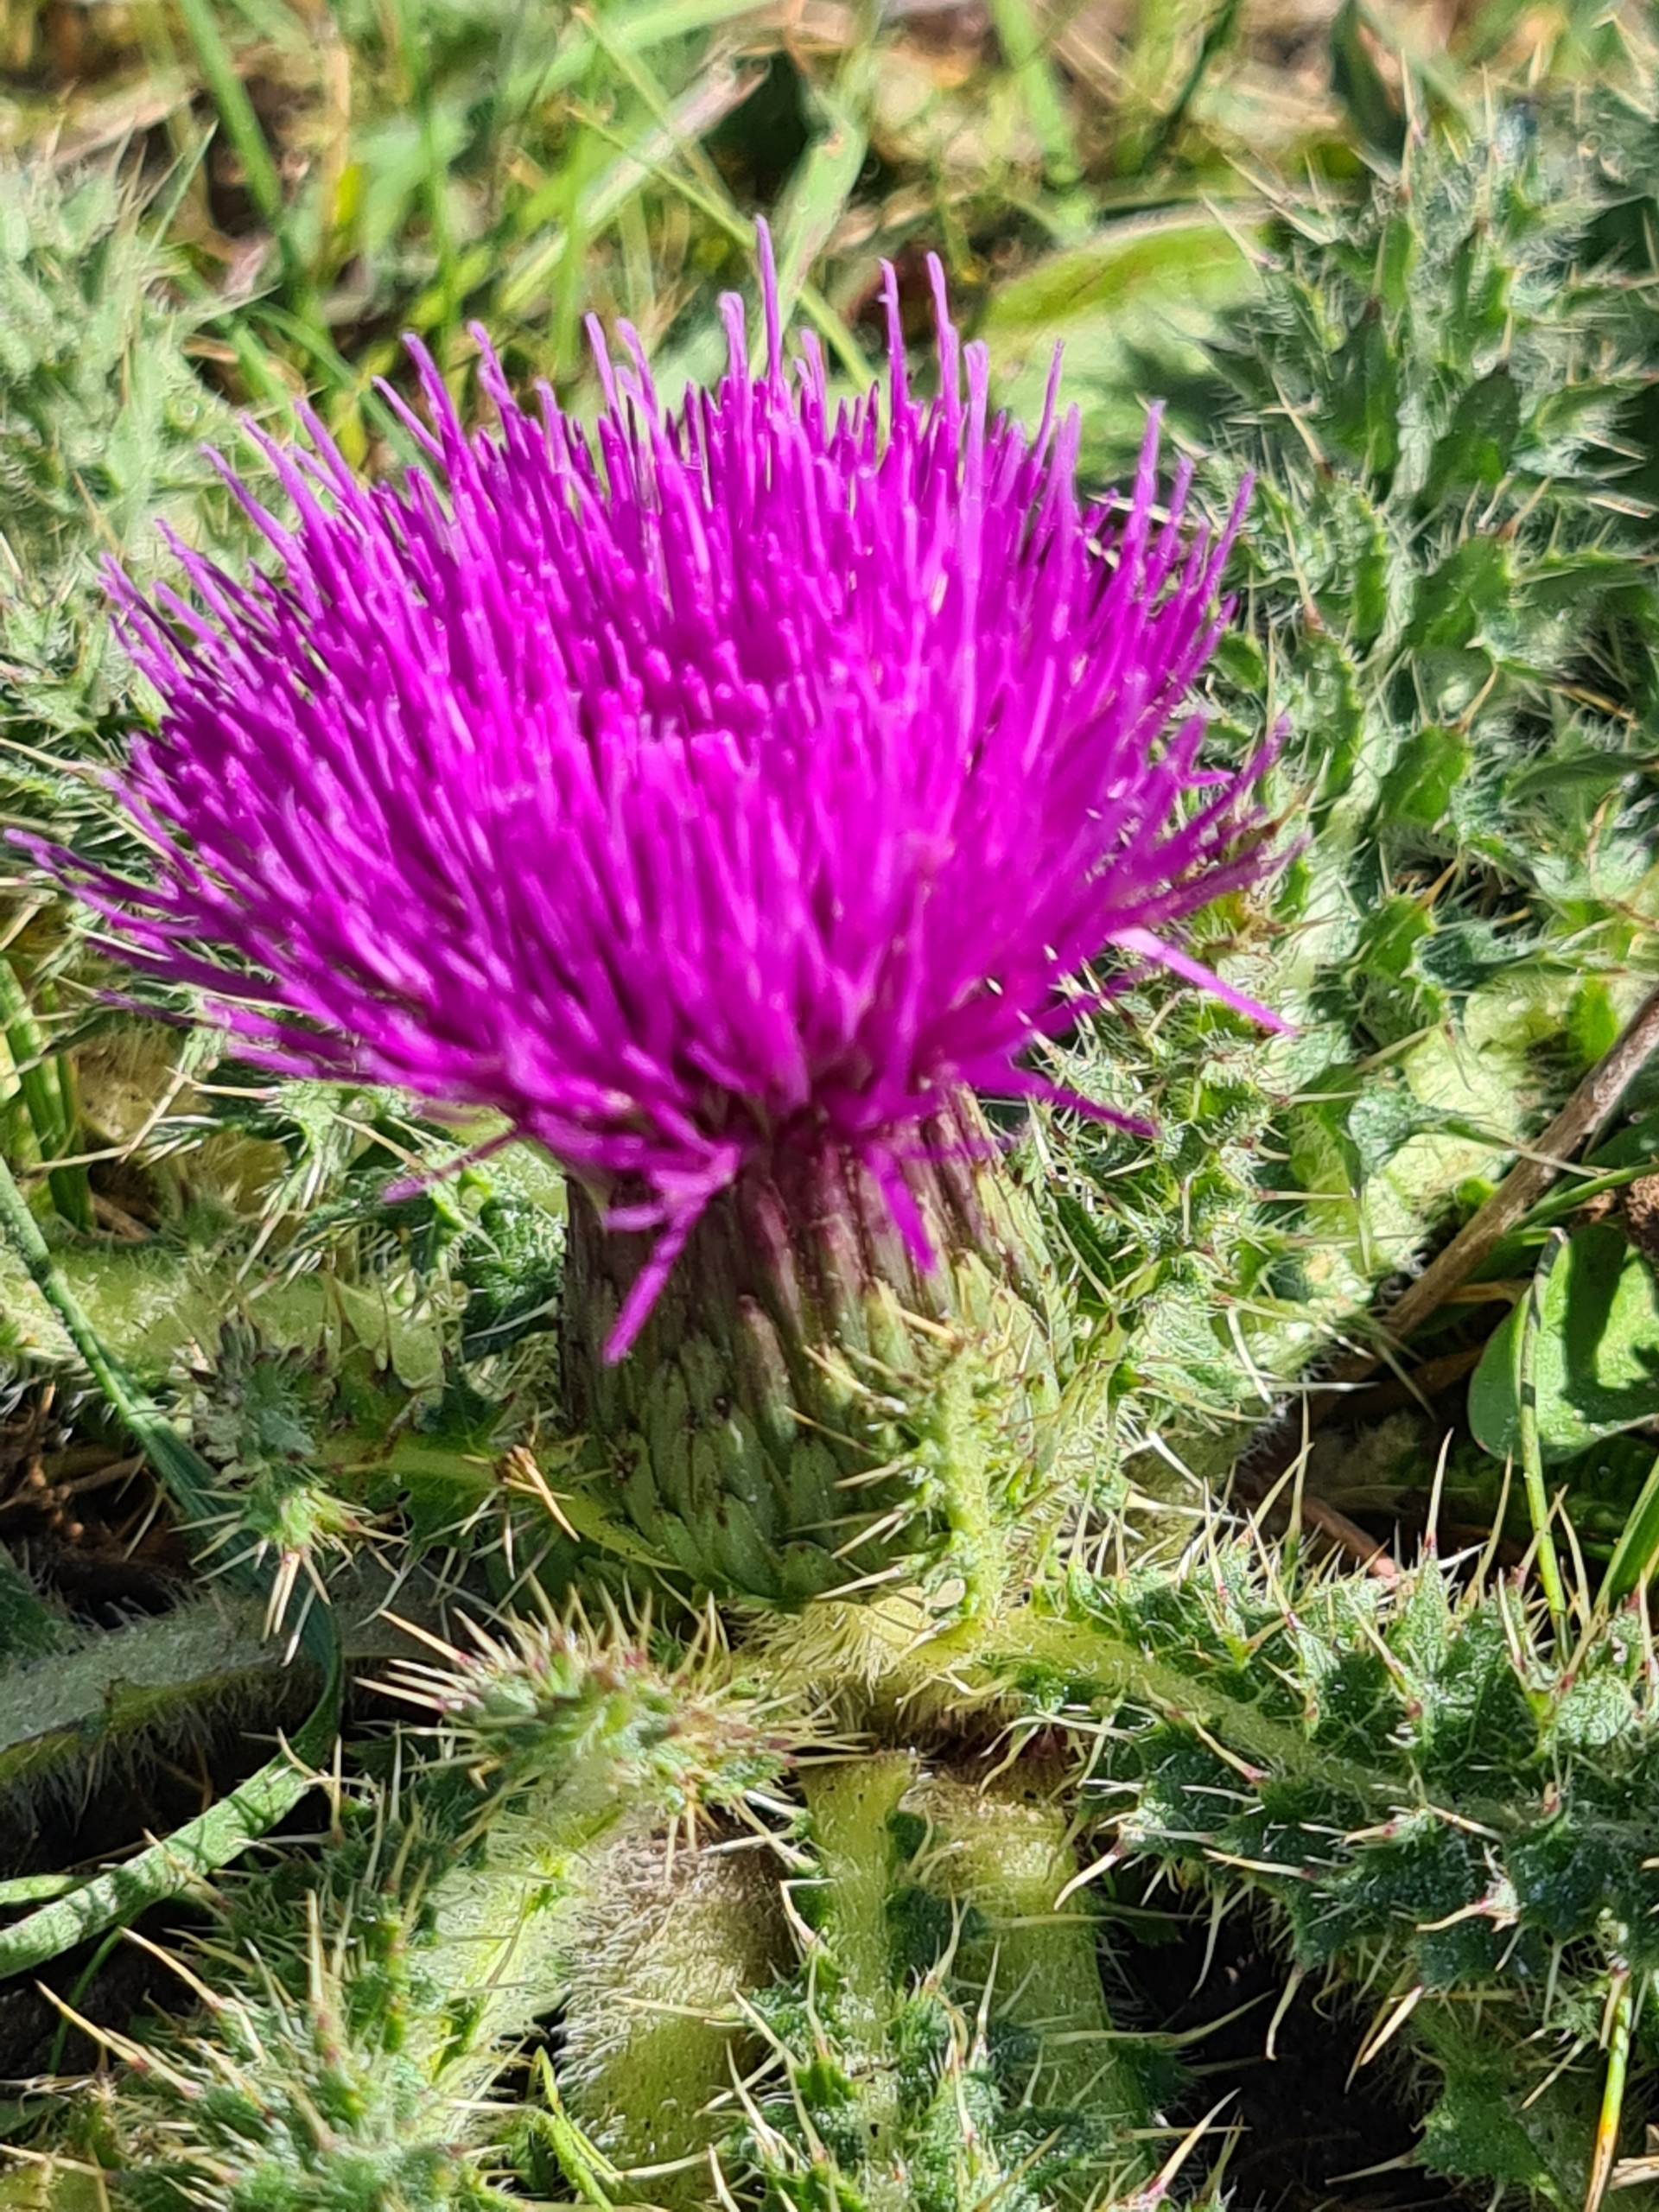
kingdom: Plantae
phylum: Tracheophyta
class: Magnoliopsida
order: Asterales
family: Asteraceae
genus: Cirsium
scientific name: Cirsium acaule
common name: Lav tidsel
